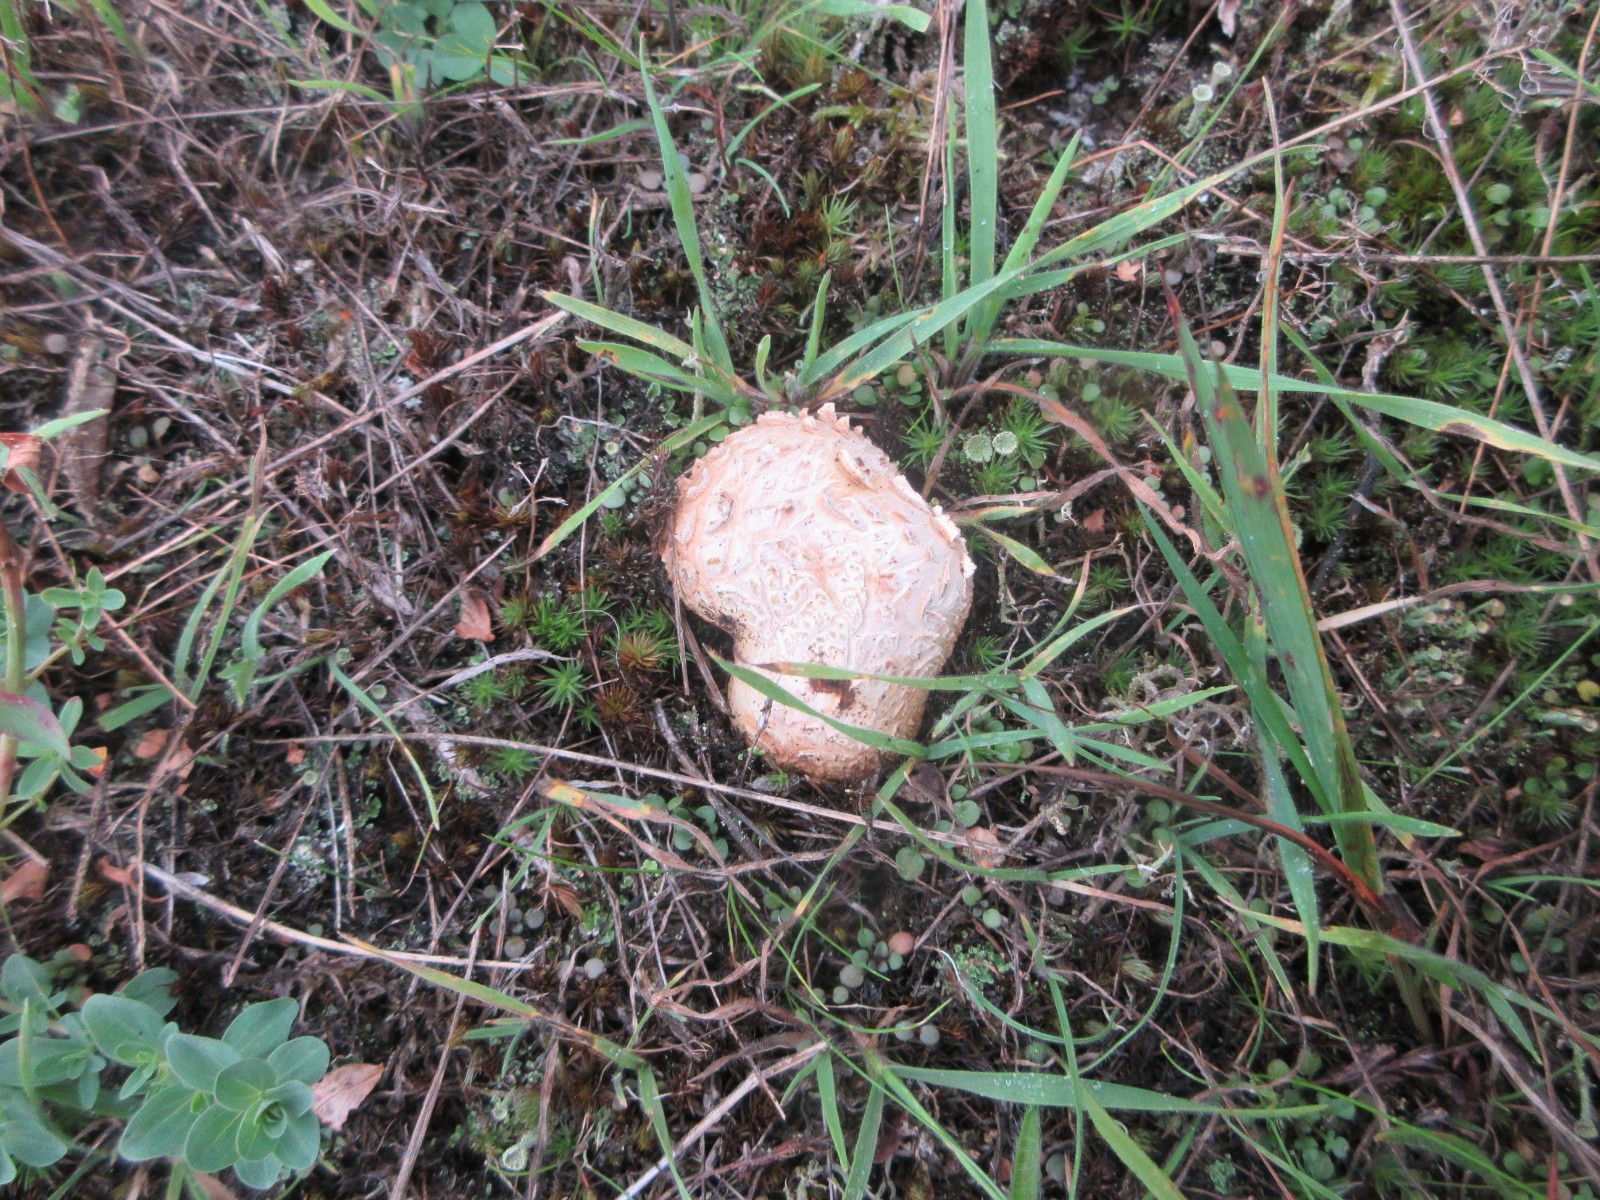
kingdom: Fungi
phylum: Basidiomycota
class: Agaricomycetes
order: Boletales
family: Sclerodermataceae
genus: Scleroderma
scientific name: Scleroderma citrinum
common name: almindelig bruskbold
